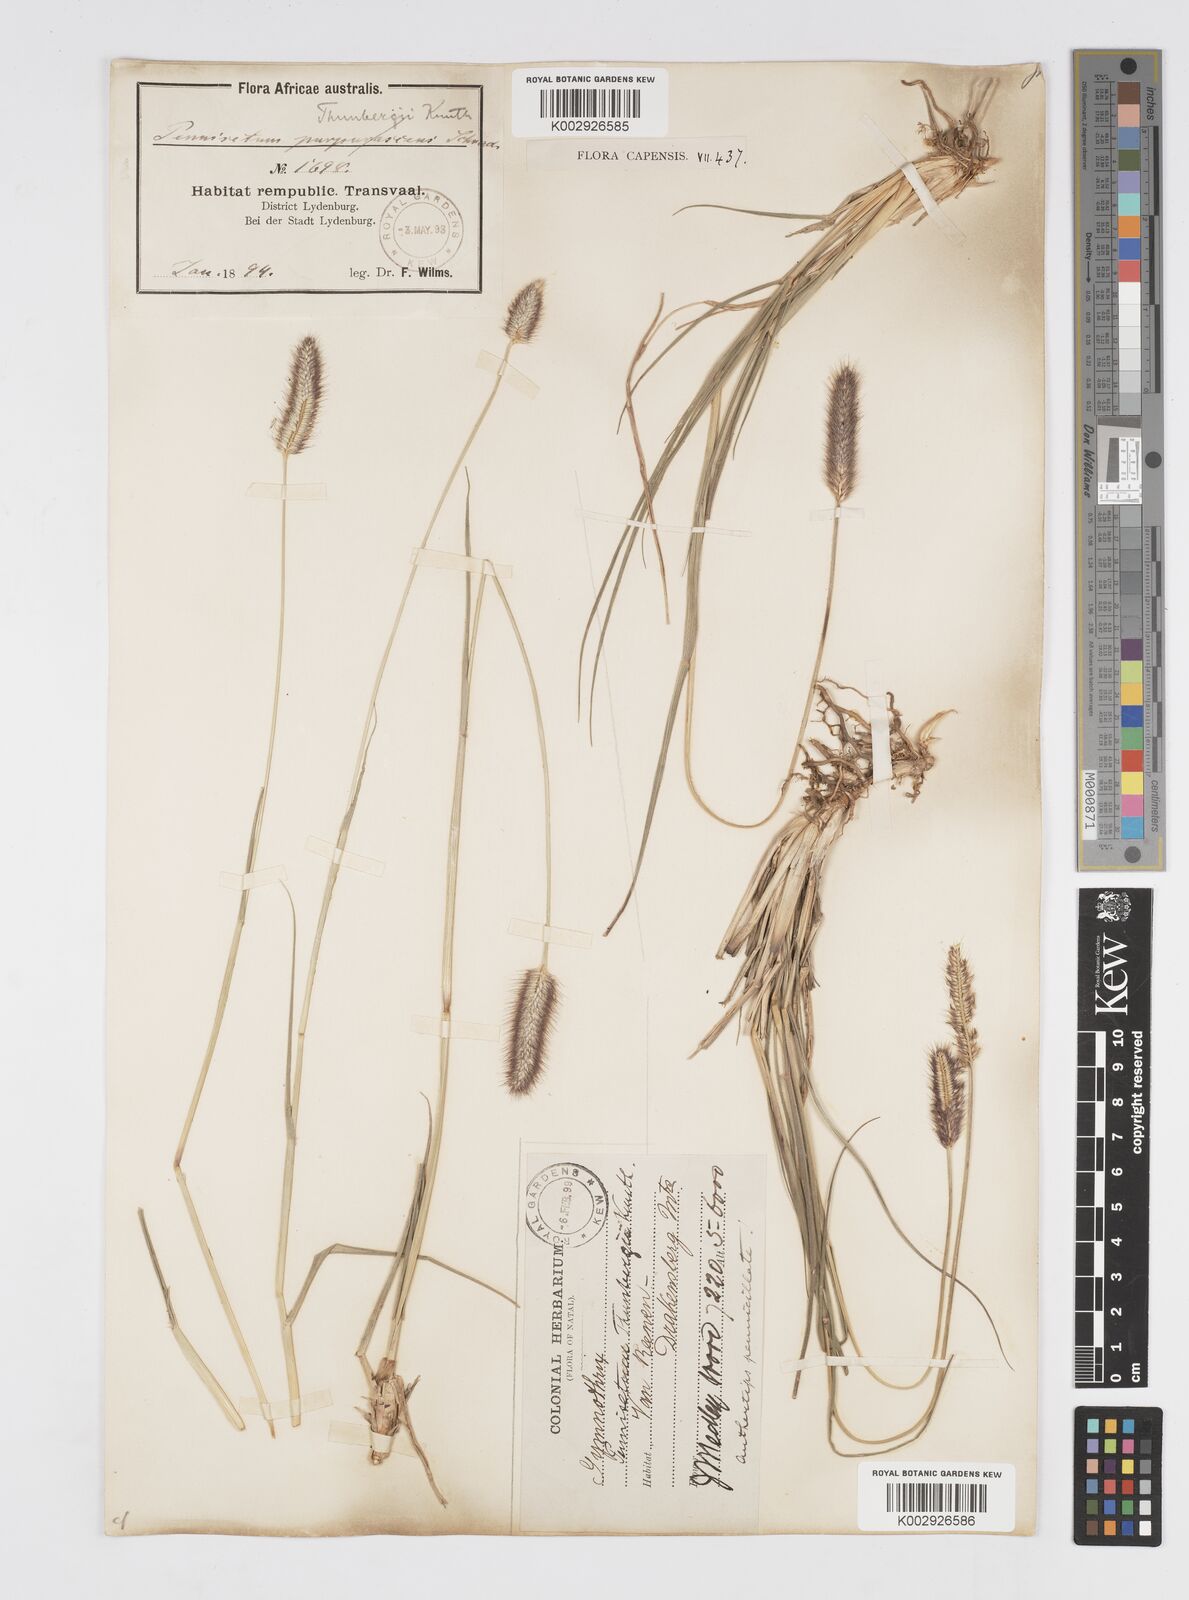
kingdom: Plantae
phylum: Tracheophyta
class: Liliopsida
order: Poales
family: Poaceae
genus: Cenchrus
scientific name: Cenchrus geniculatus
